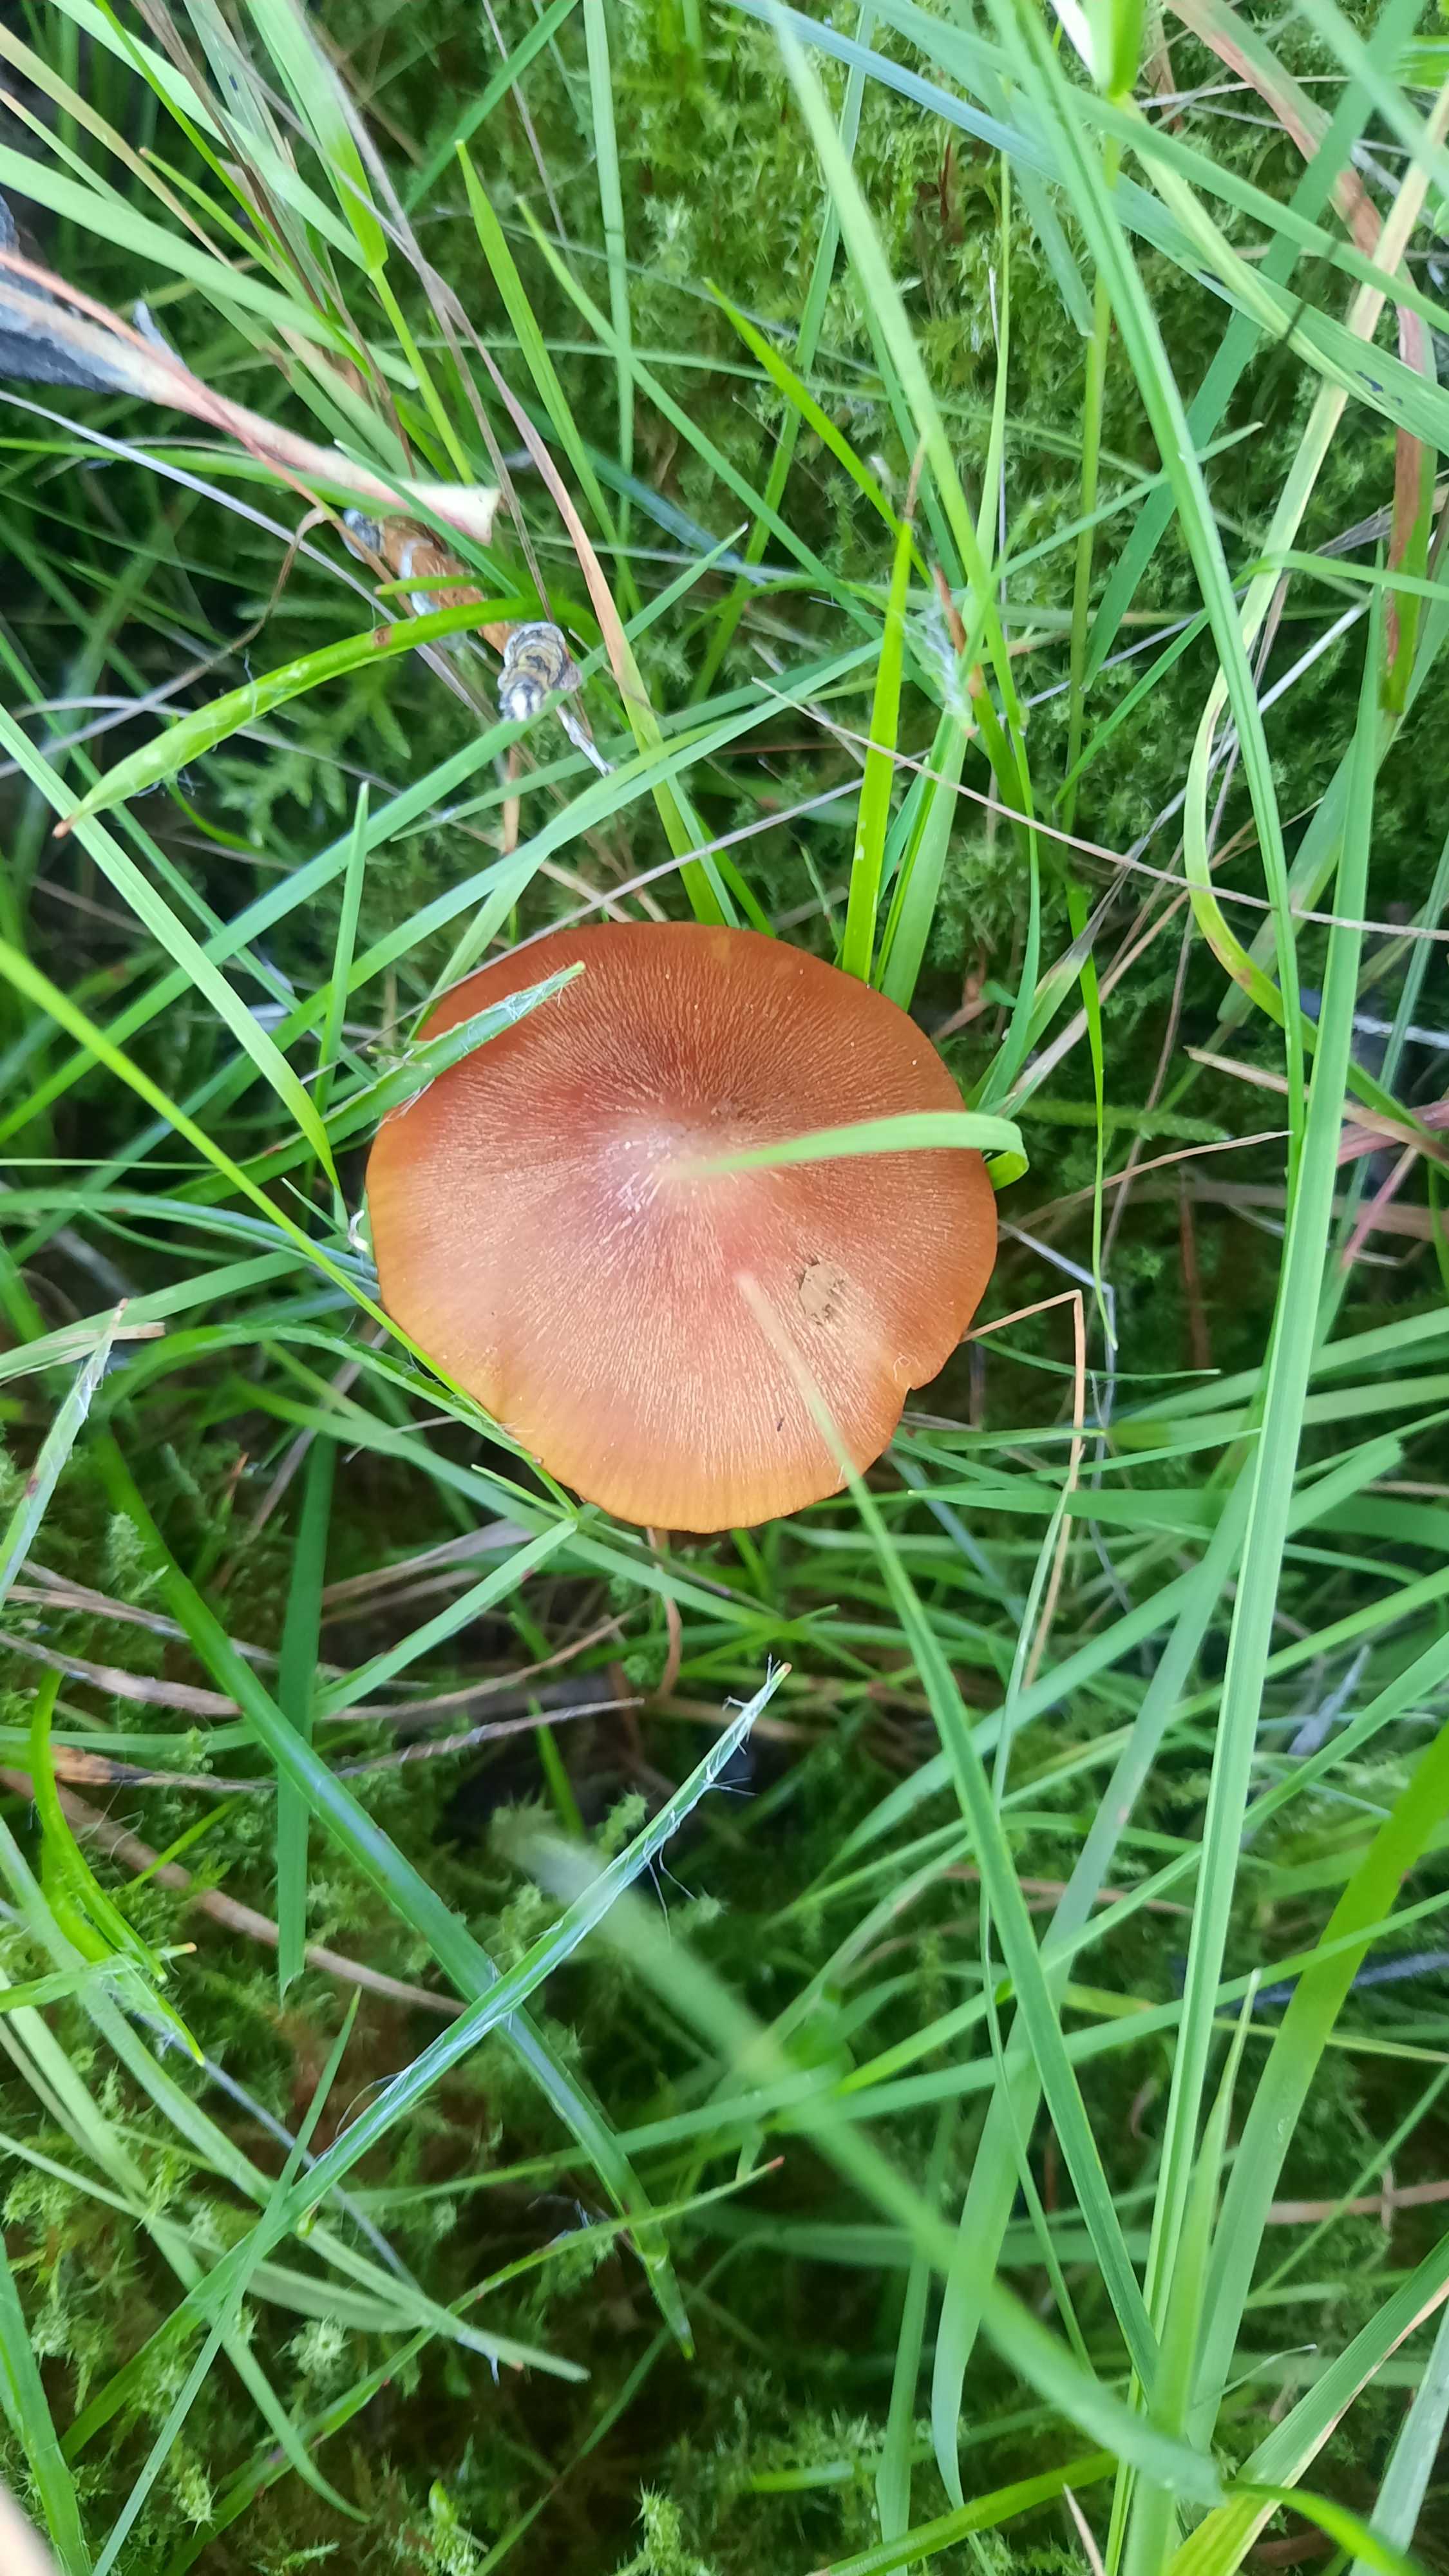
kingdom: Fungi
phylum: Basidiomycota
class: Agaricomycetes
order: Agaricales
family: Hygrophoraceae
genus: Hygrocybe
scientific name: Hygrocybe conica
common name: kegle-vokshat
